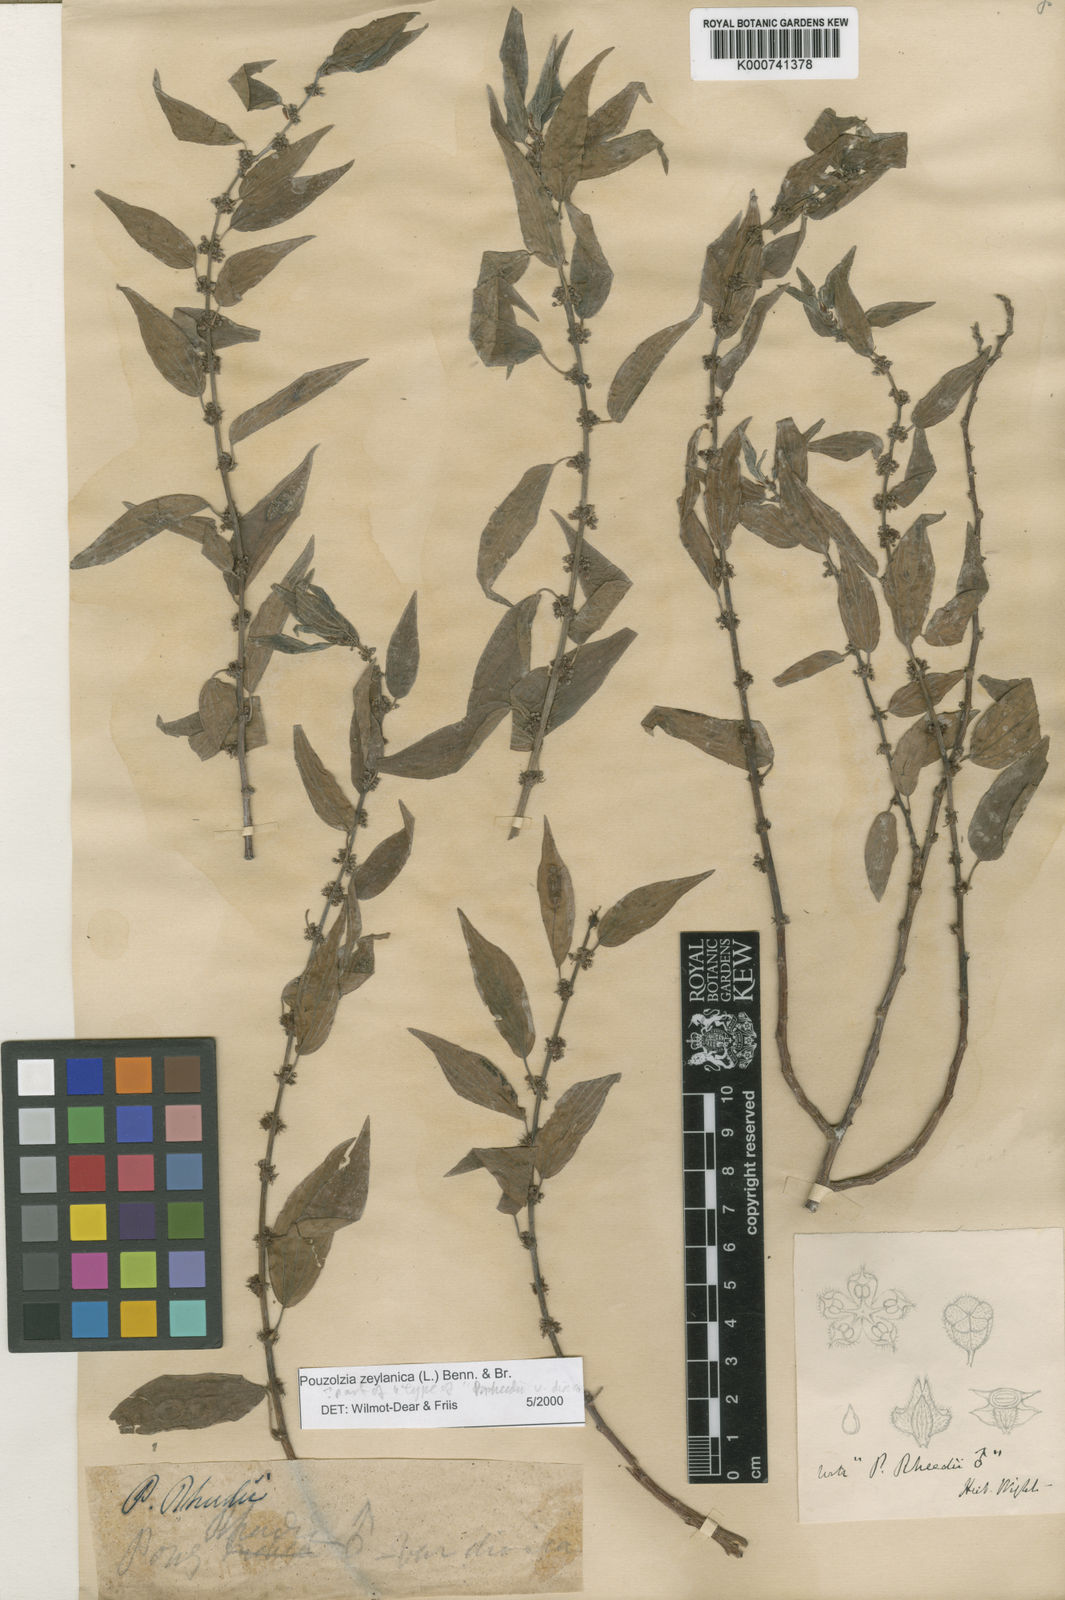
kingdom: Plantae
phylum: Tracheophyta
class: Magnoliopsida
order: Rosales
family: Urticaceae
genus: Pouzolzia
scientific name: Pouzolzia zeylanica
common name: Graceful pouzolzsbush
